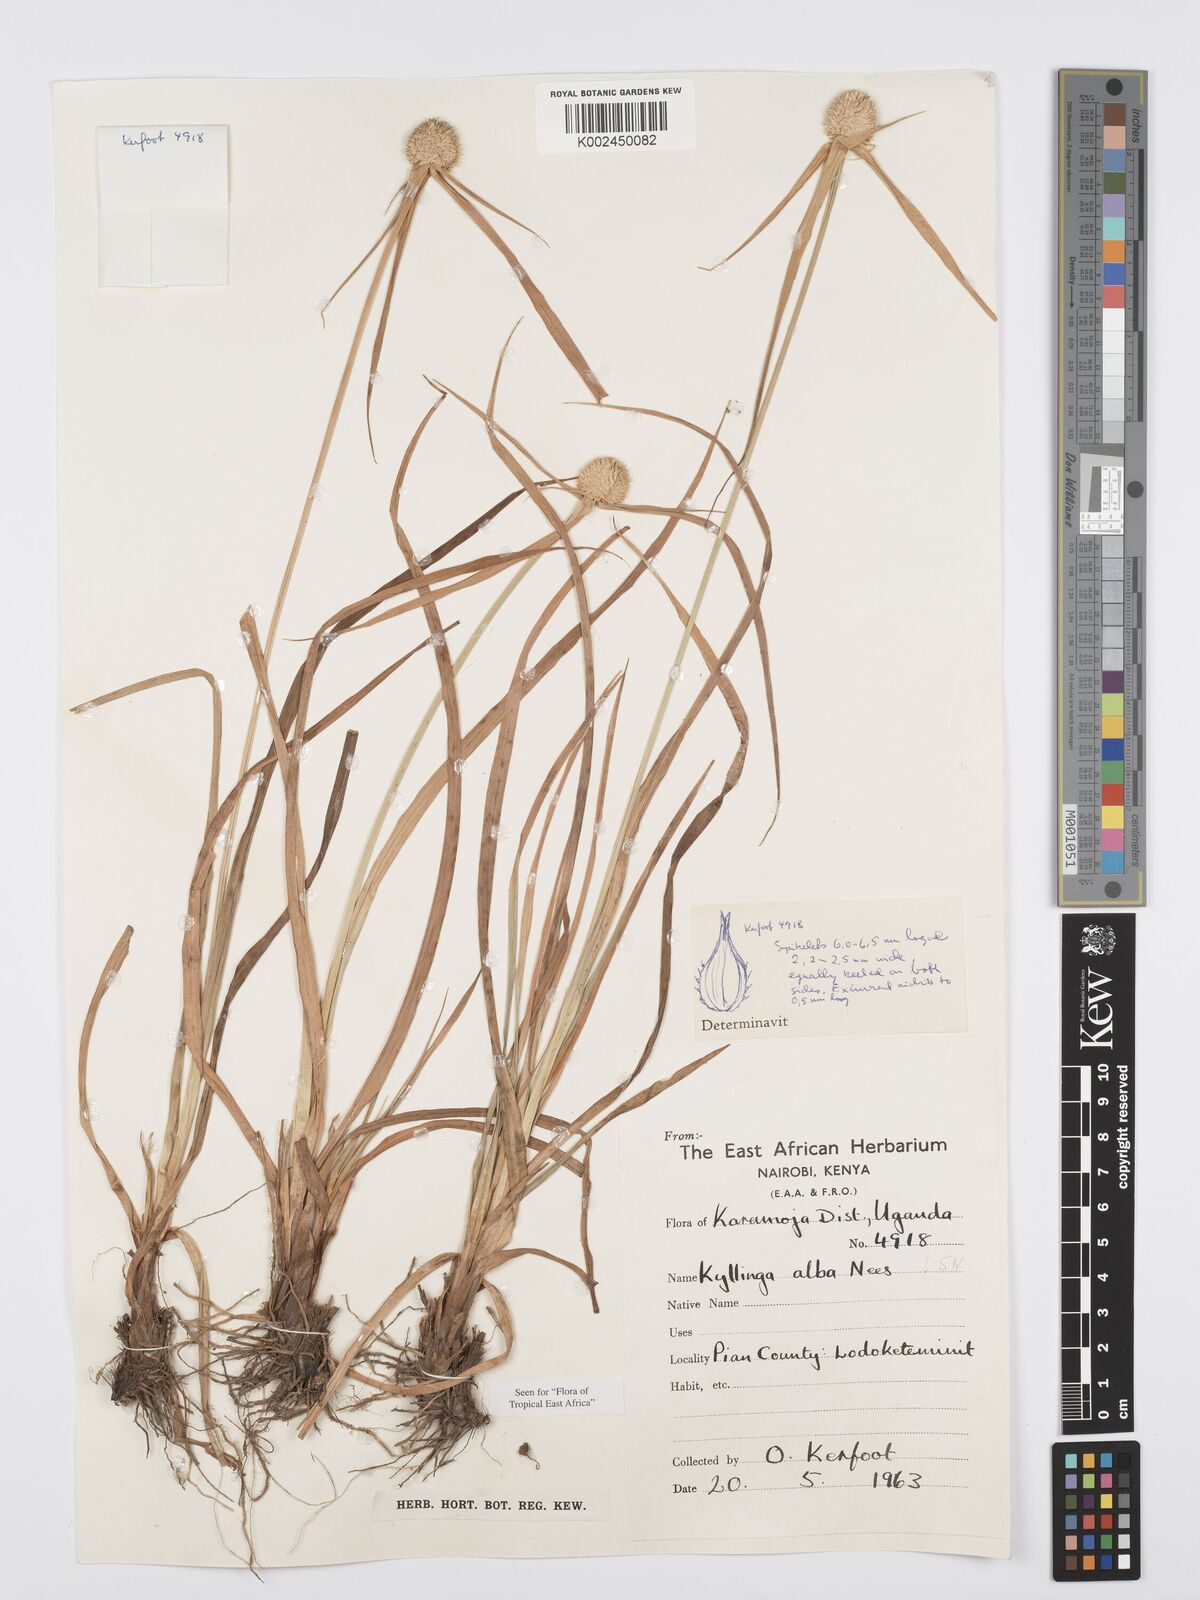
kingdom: Plantae
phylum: Tracheophyta
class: Liliopsida
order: Poales
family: Cyperaceae
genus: Cyperus
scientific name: Cyperus
